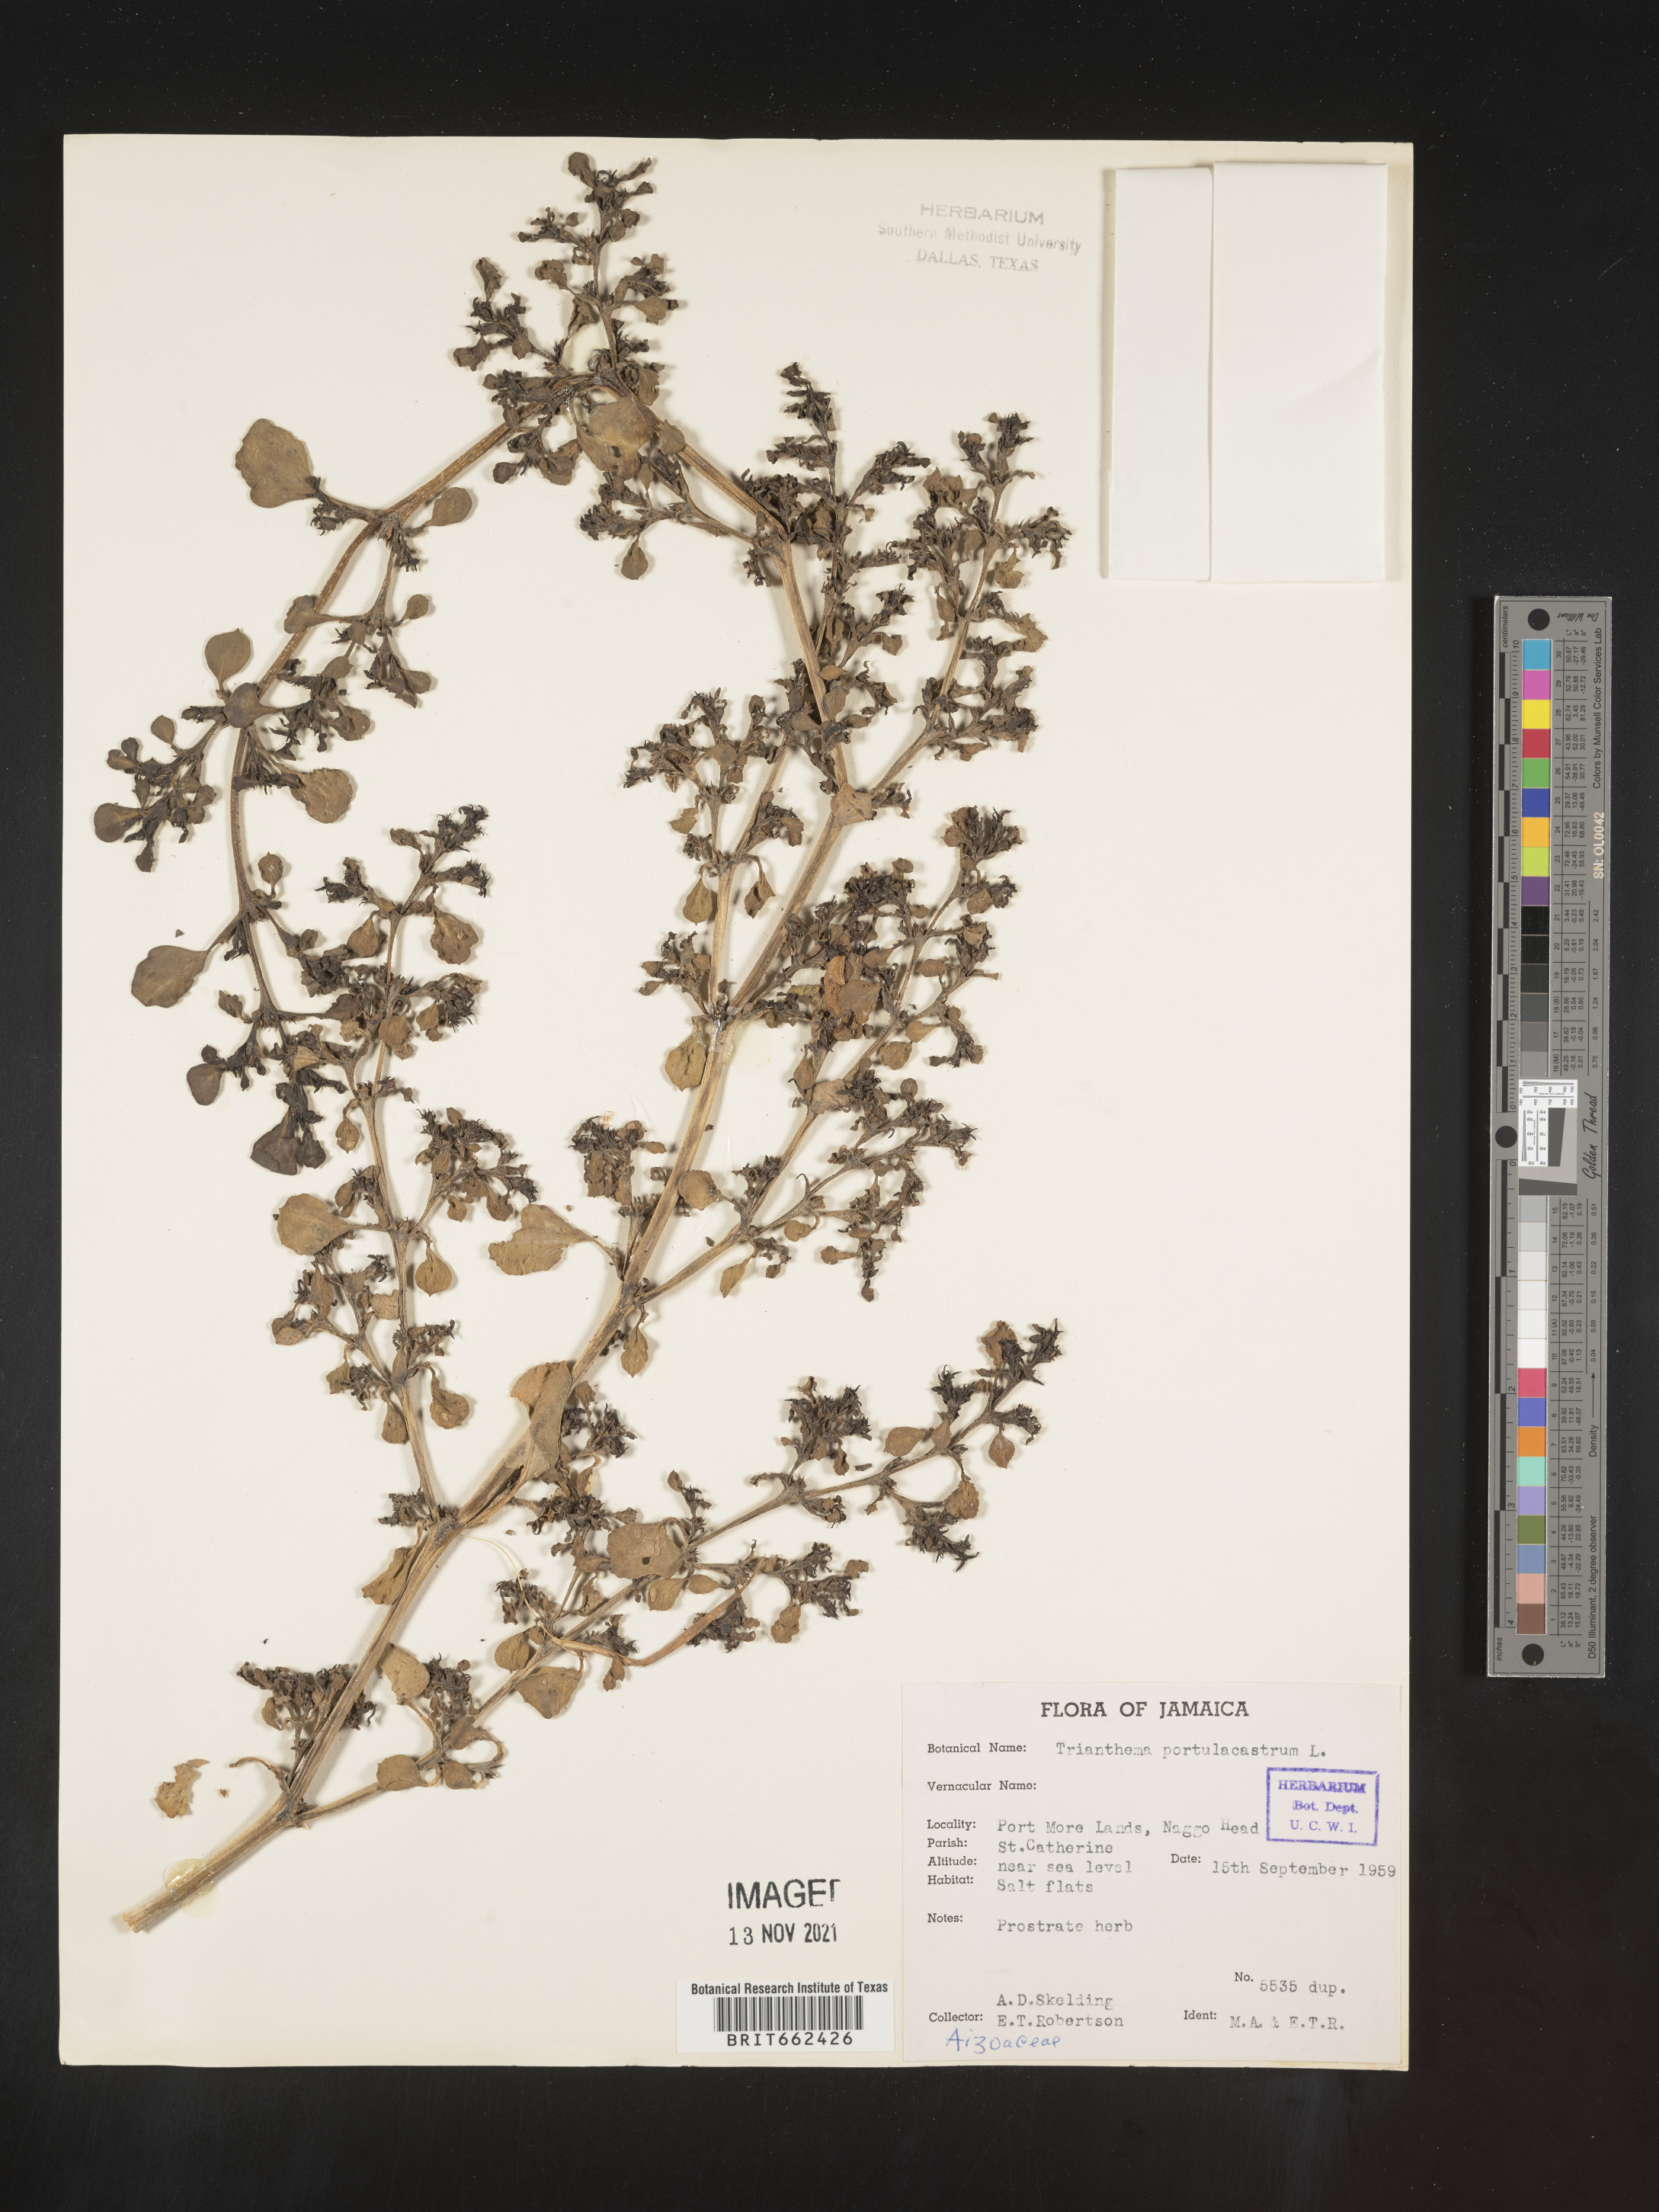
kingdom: Plantae
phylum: Tracheophyta
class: Magnoliopsida
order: Caryophyllales
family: Aizoaceae
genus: Trianthema
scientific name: Trianthema
